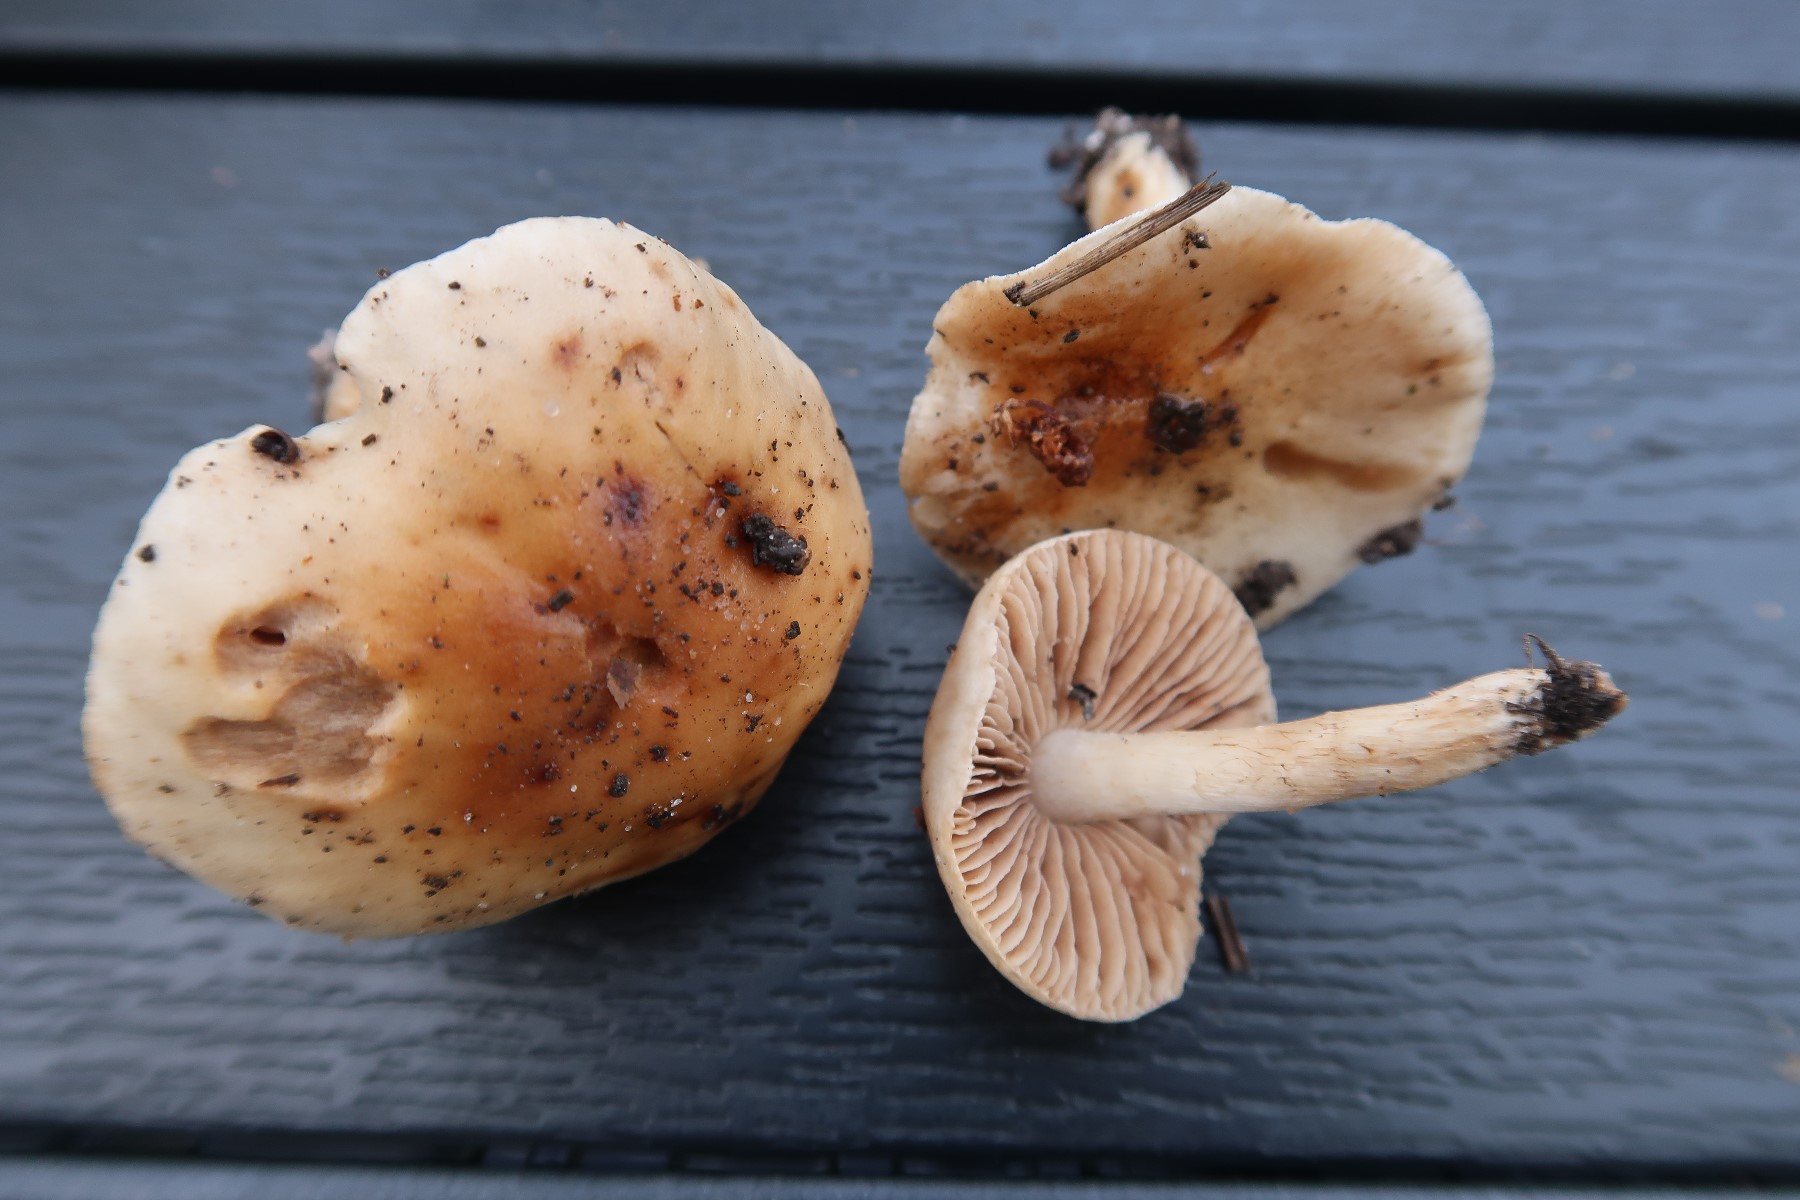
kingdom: Fungi
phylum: Basidiomycota
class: Agaricomycetes
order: Agaricales
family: Hymenogastraceae
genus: Hebeloma
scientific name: Hebeloma sacchariolens
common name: sødtduftende tåreblad
